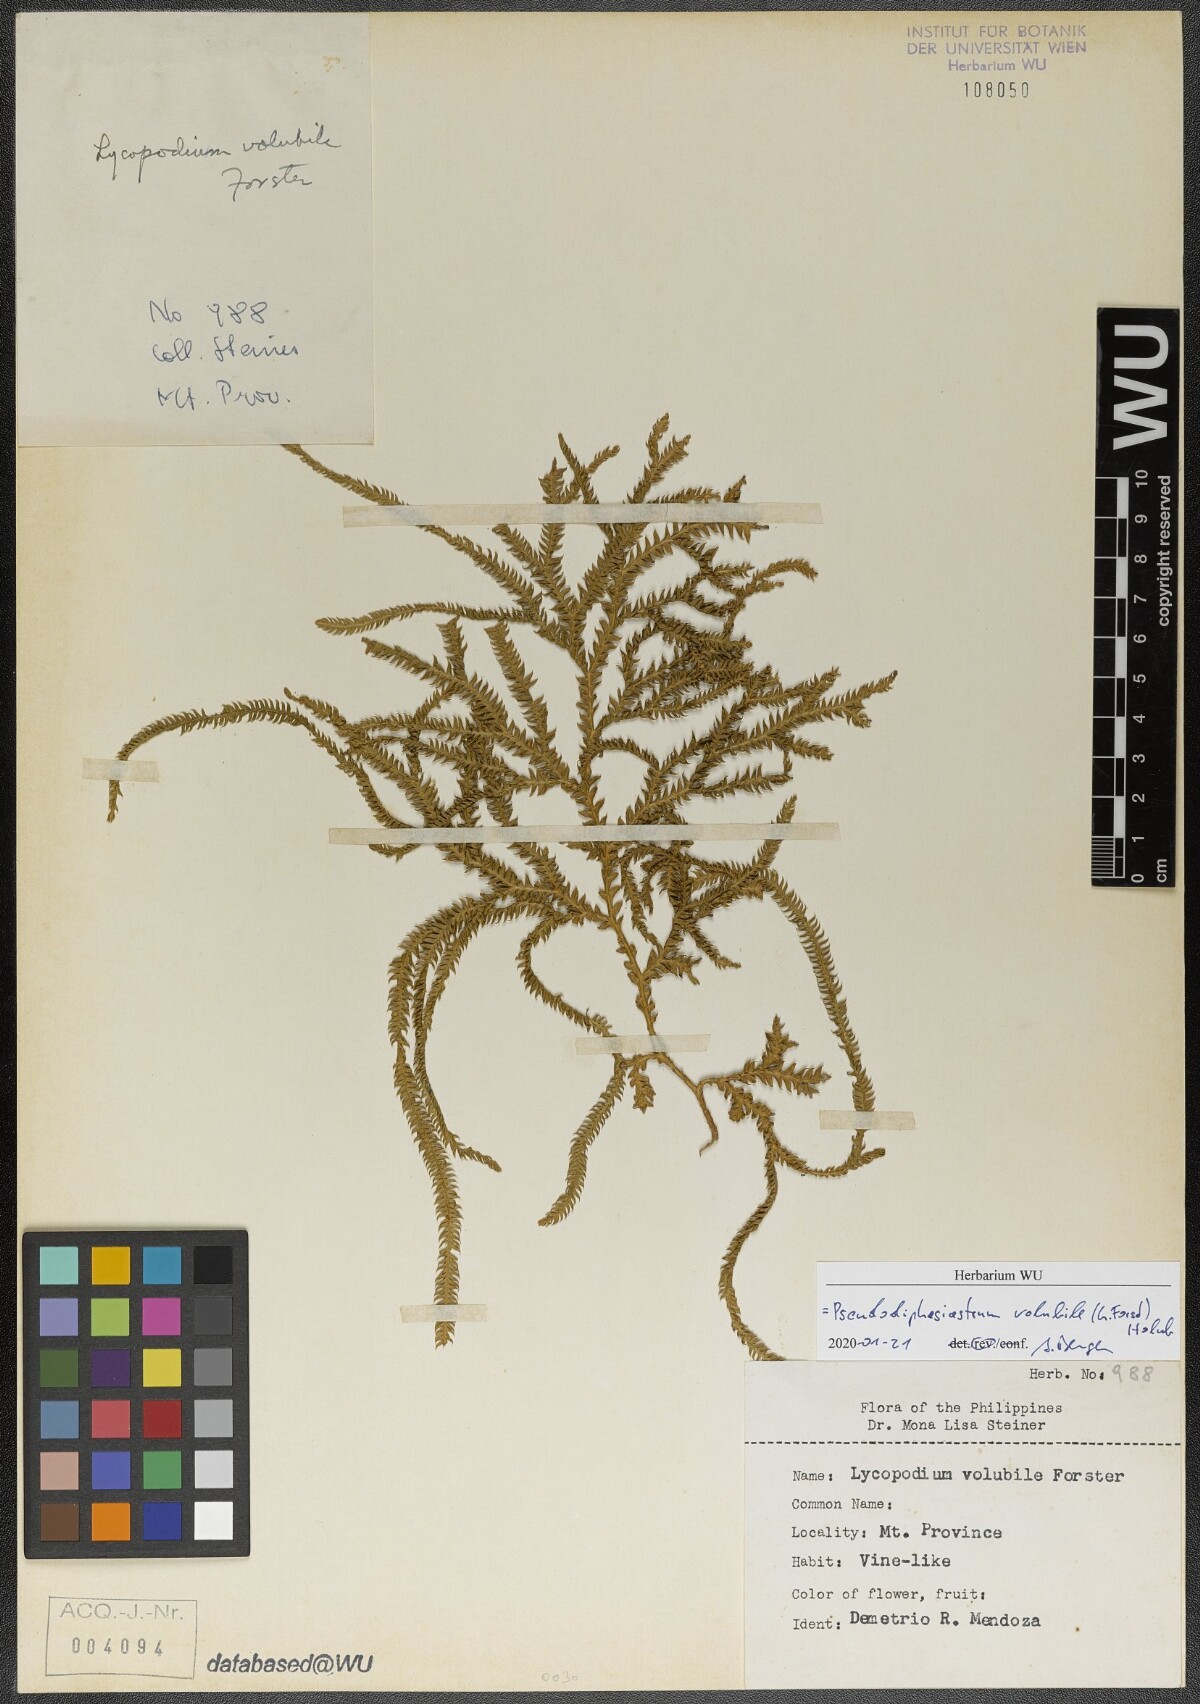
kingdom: Plantae
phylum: Tracheophyta
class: Lycopodiopsida
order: Lycopodiales
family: Lycopodiaceae
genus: Pseudodiphasium
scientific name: Pseudodiphasium volubile
